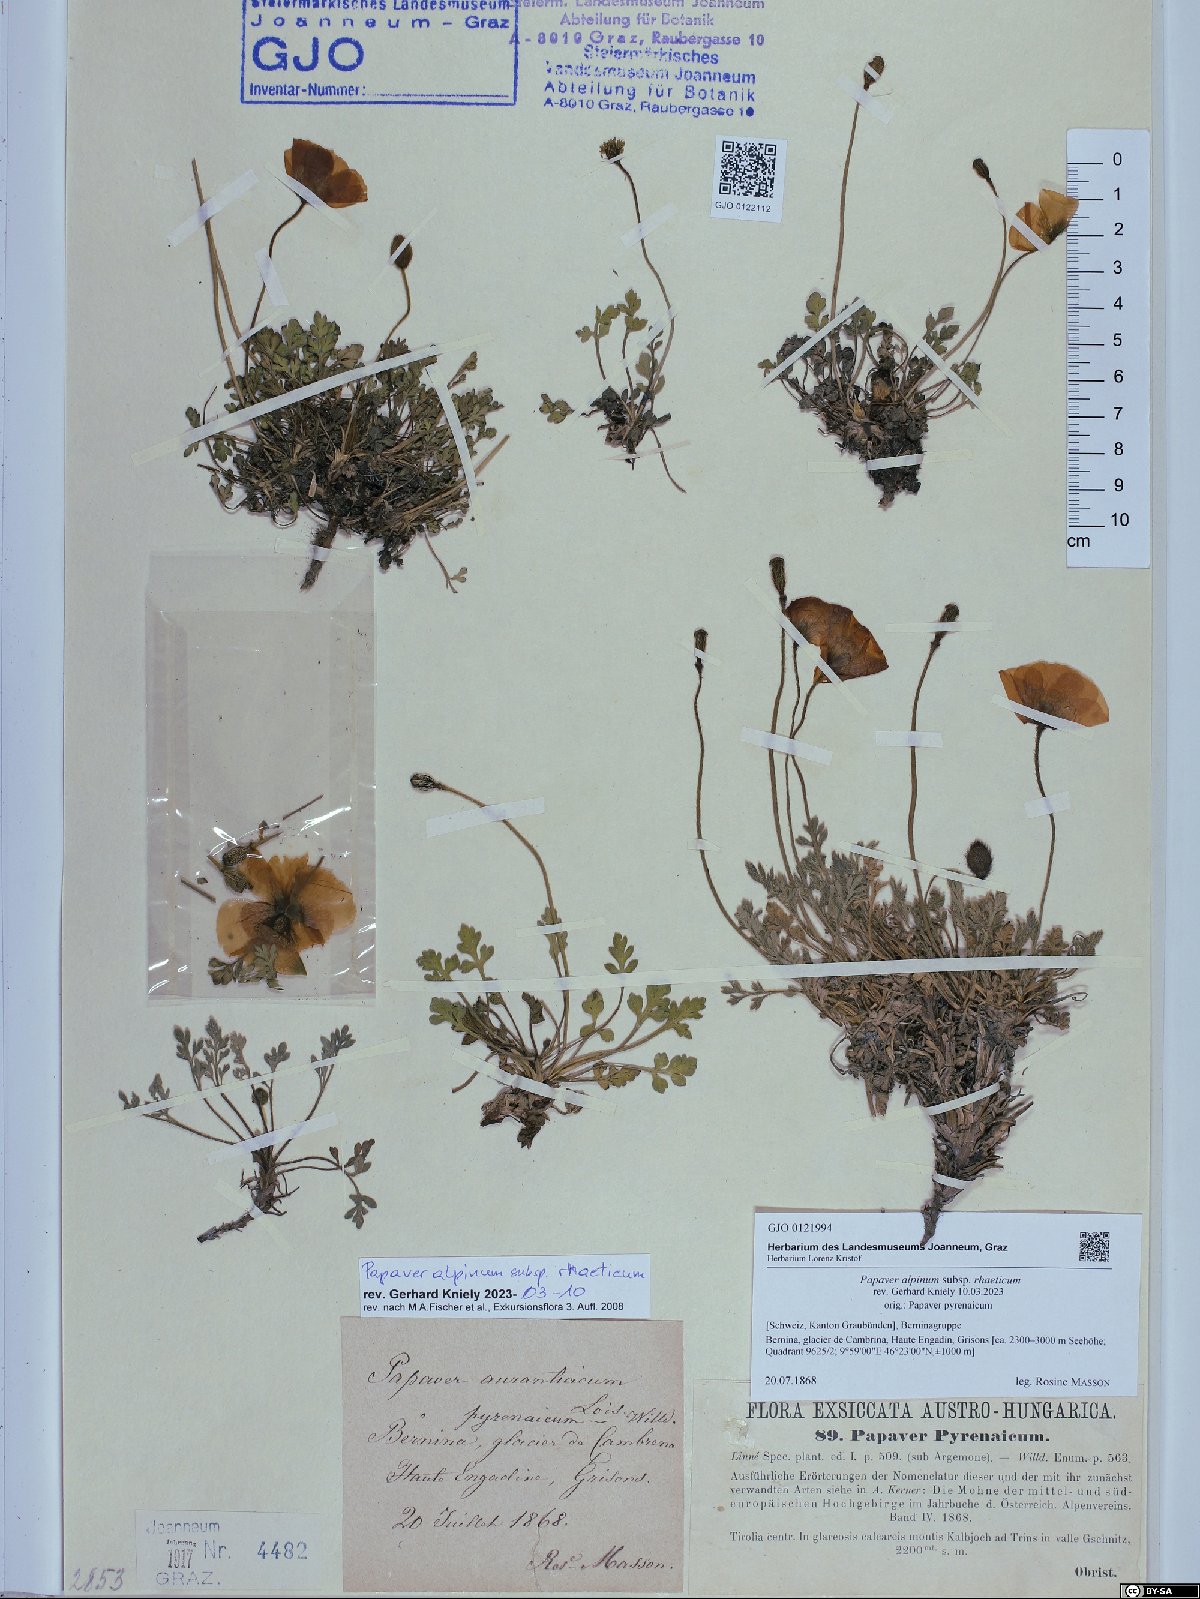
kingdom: Plantae
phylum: Tracheophyta
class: Magnoliopsida
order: Ranunculales
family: Papaveraceae
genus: Papaver
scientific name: Papaver alpinum
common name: Austrian poppy
